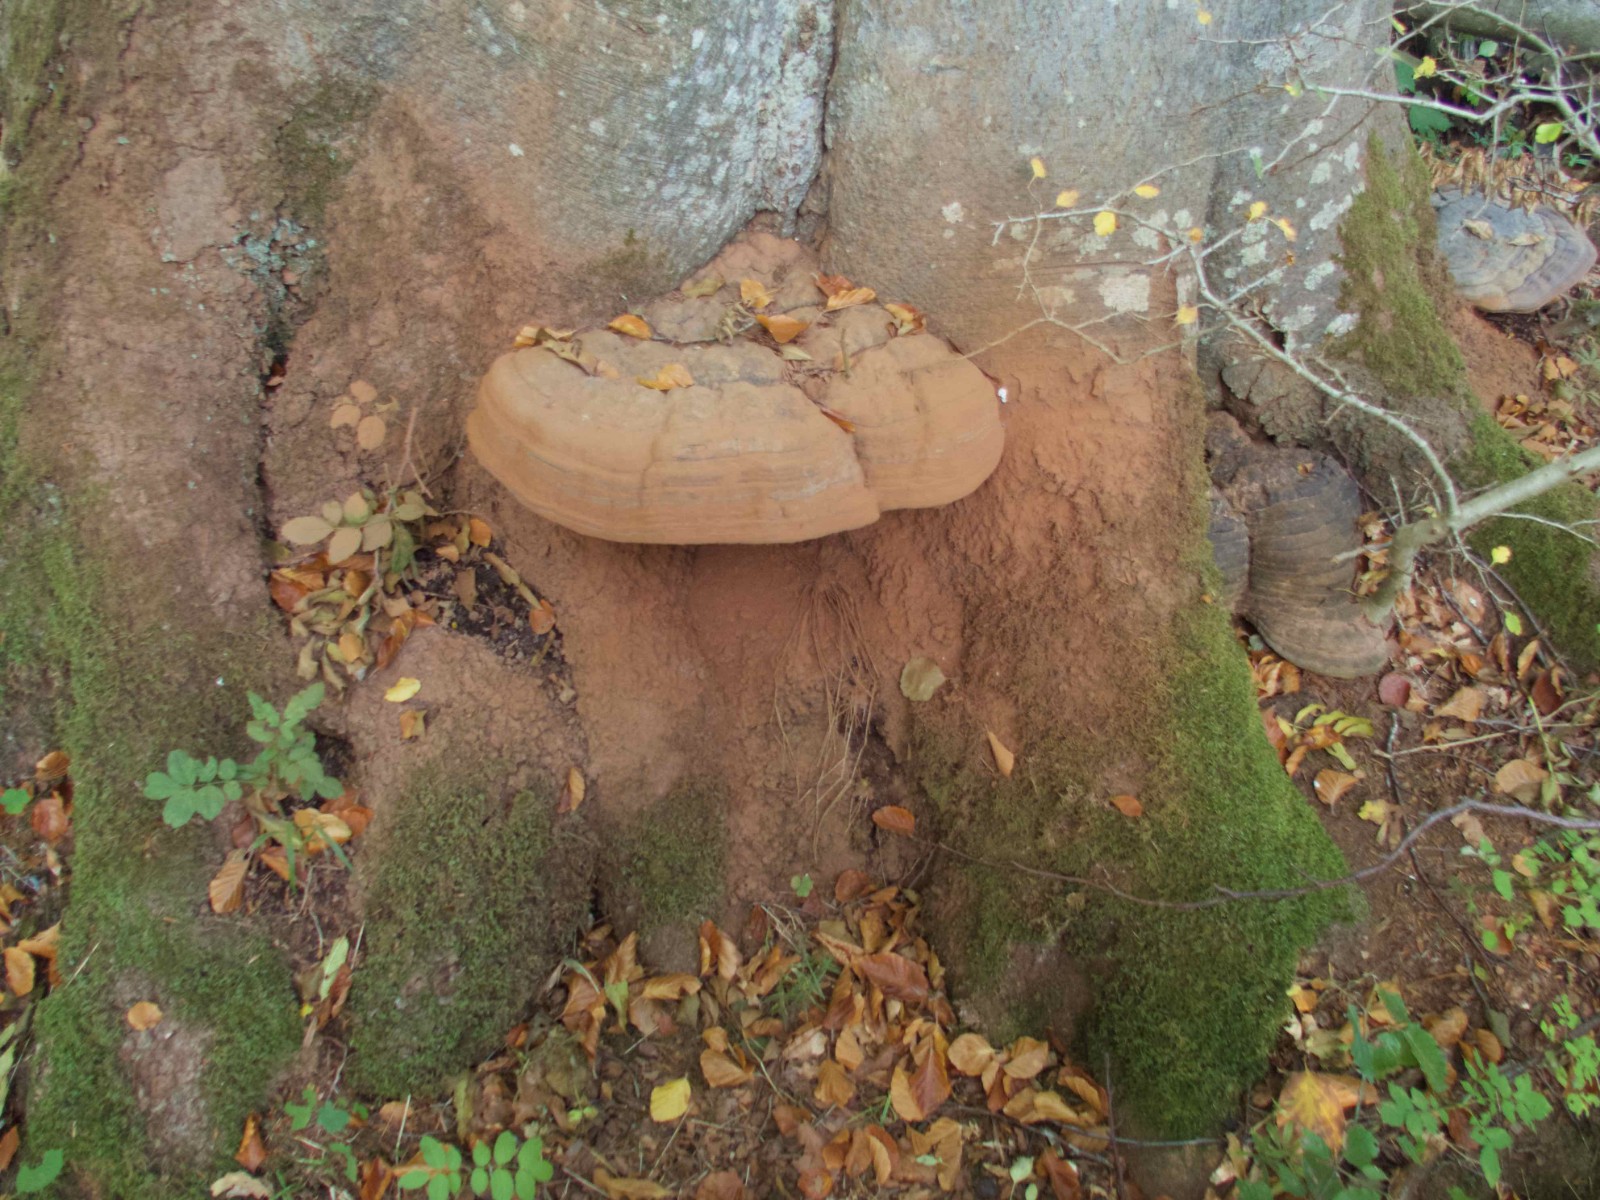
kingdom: Fungi
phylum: Basidiomycota
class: Agaricomycetes
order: Polyporales
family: Polyporaceae
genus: Ganoderma
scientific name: Ganoderma pfeifferi
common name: kobberrød lakporesvamp
